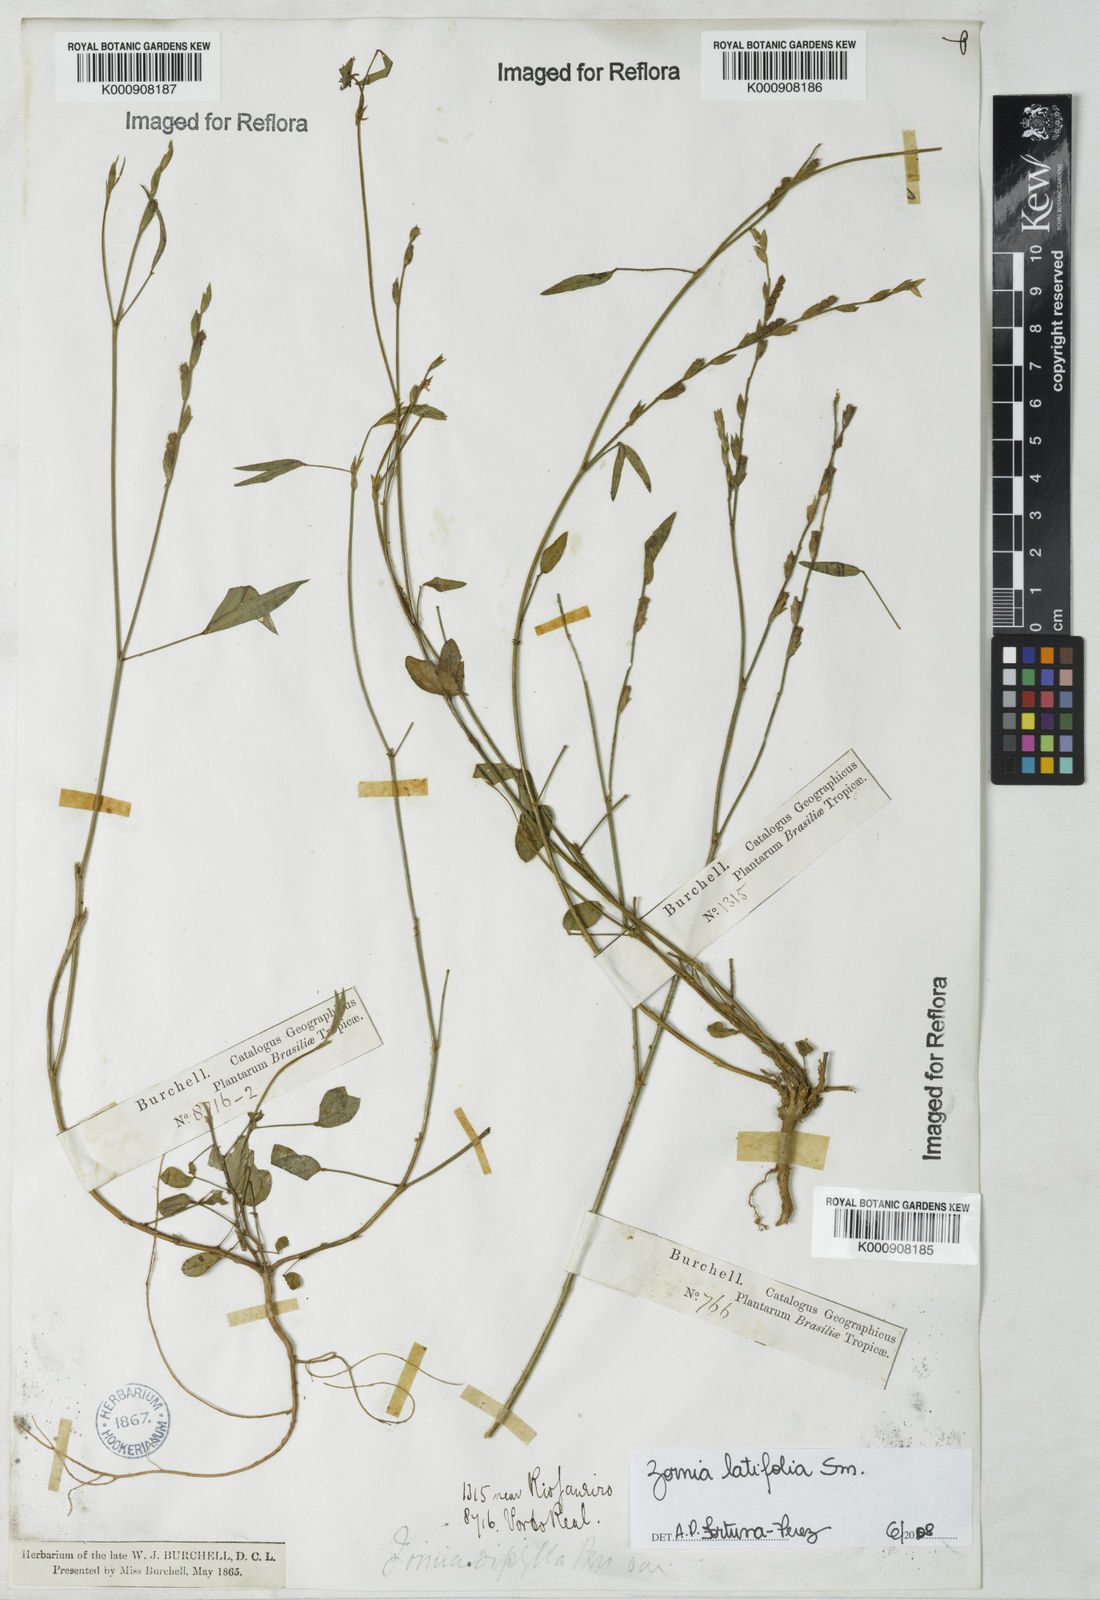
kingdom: Plantae
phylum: Tracheophyta
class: Magnoliopsida
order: Fabales
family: Fabaceae
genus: Zornia
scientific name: Zornia latifolia
